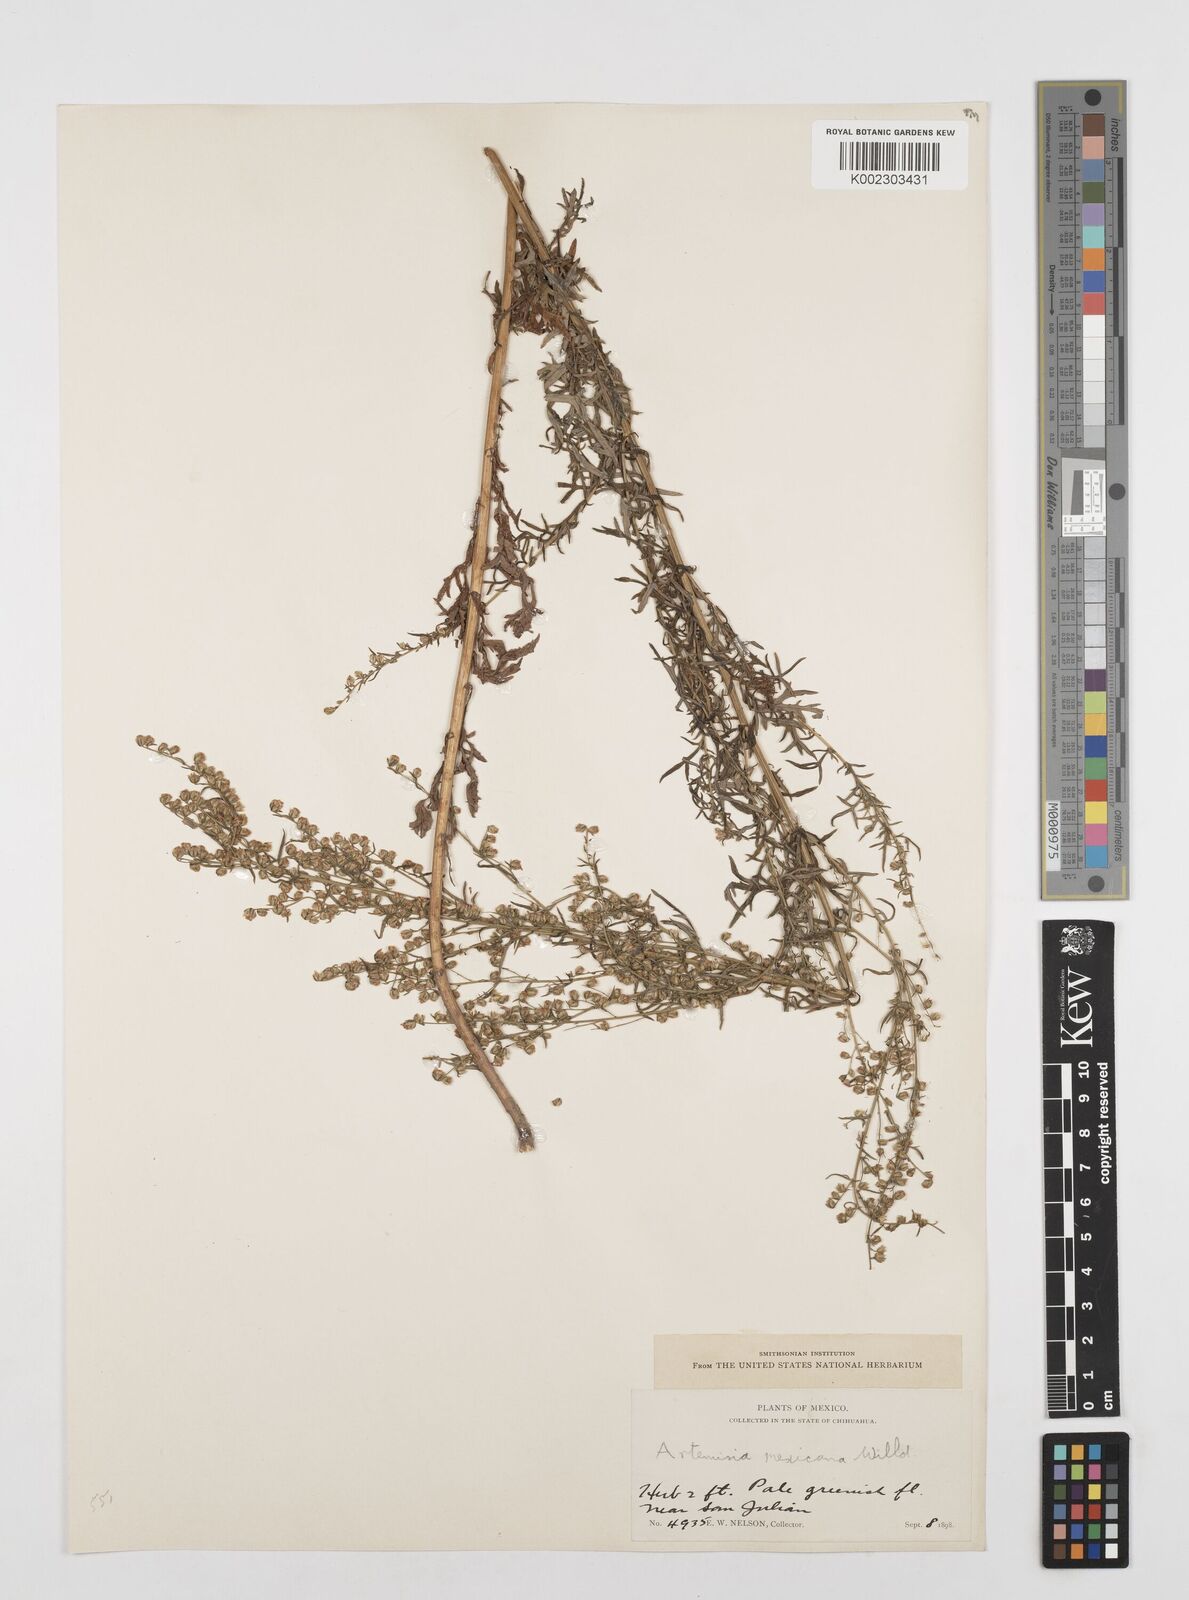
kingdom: Plantae
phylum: Tracheophyta
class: Magnoliopsida
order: Asterales
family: Asteraceae
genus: Artemisia
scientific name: Artemisia ludoviciana
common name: Western mugwort
